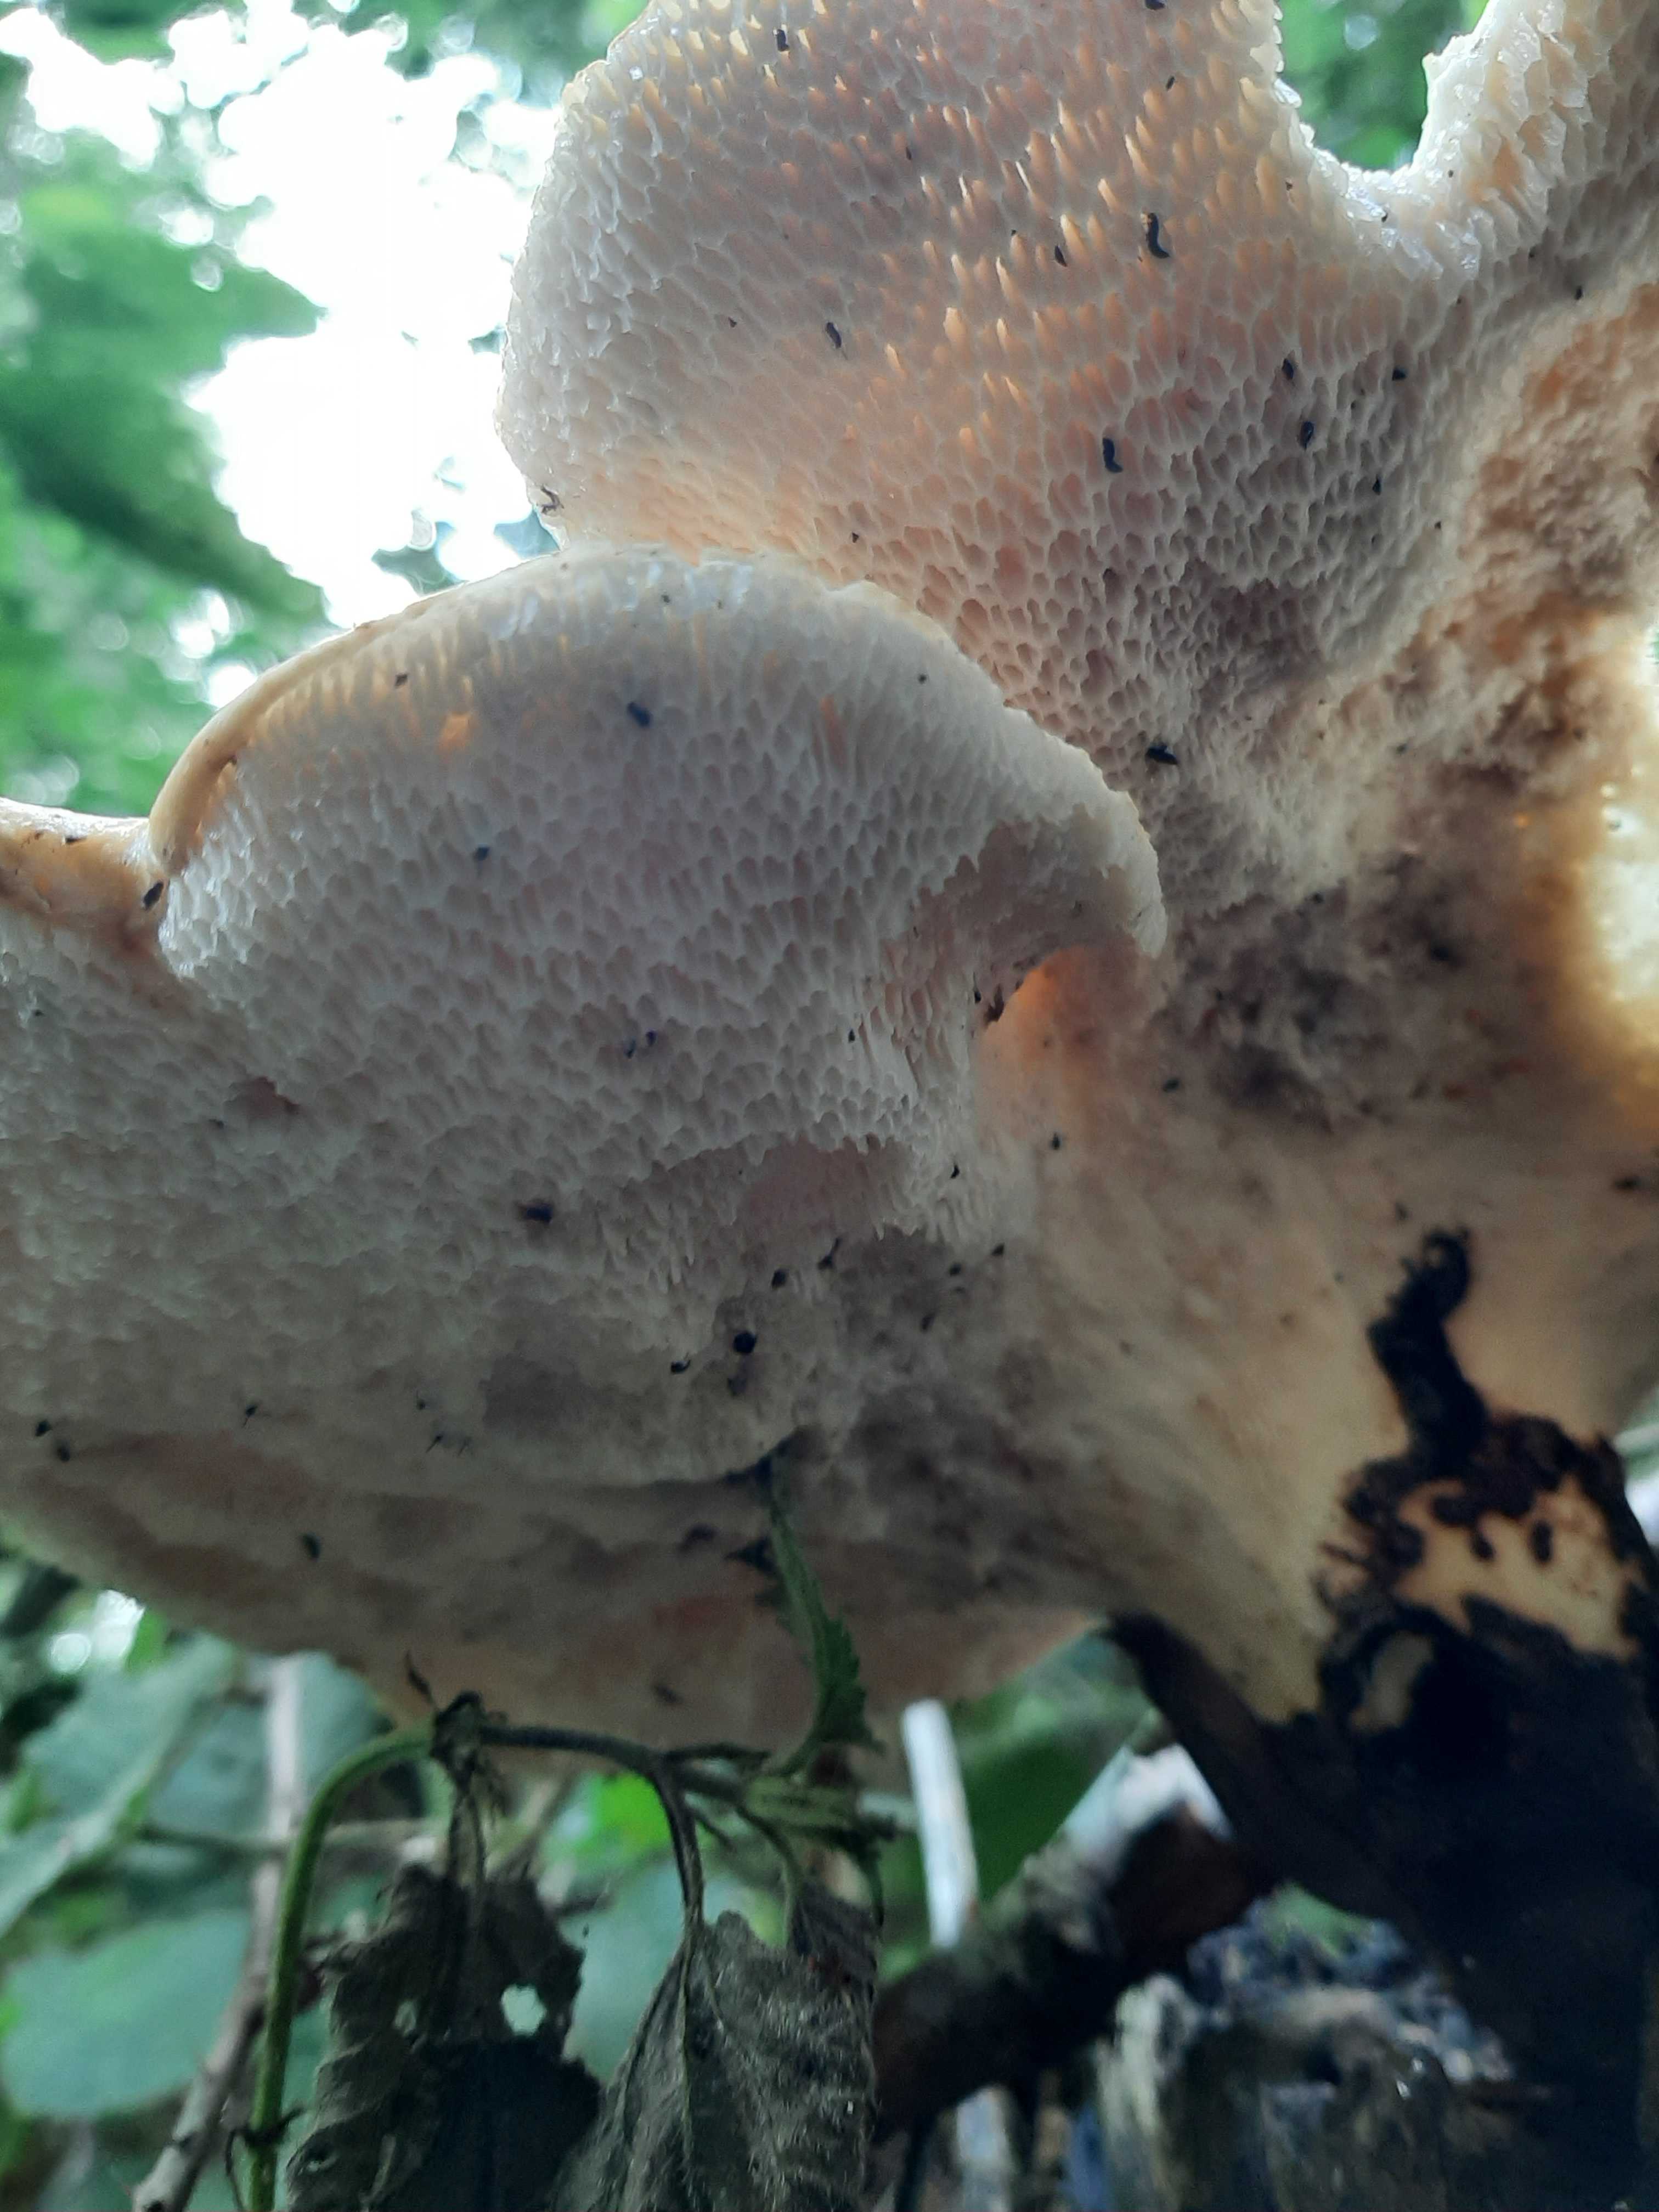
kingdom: Fungi
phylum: Basidiomycota
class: Agaricomycetes
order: Polyporales
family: Polyporaceae
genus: Cerioporus
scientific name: Cerioporus squamosus
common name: skællet stilkporesvamp
